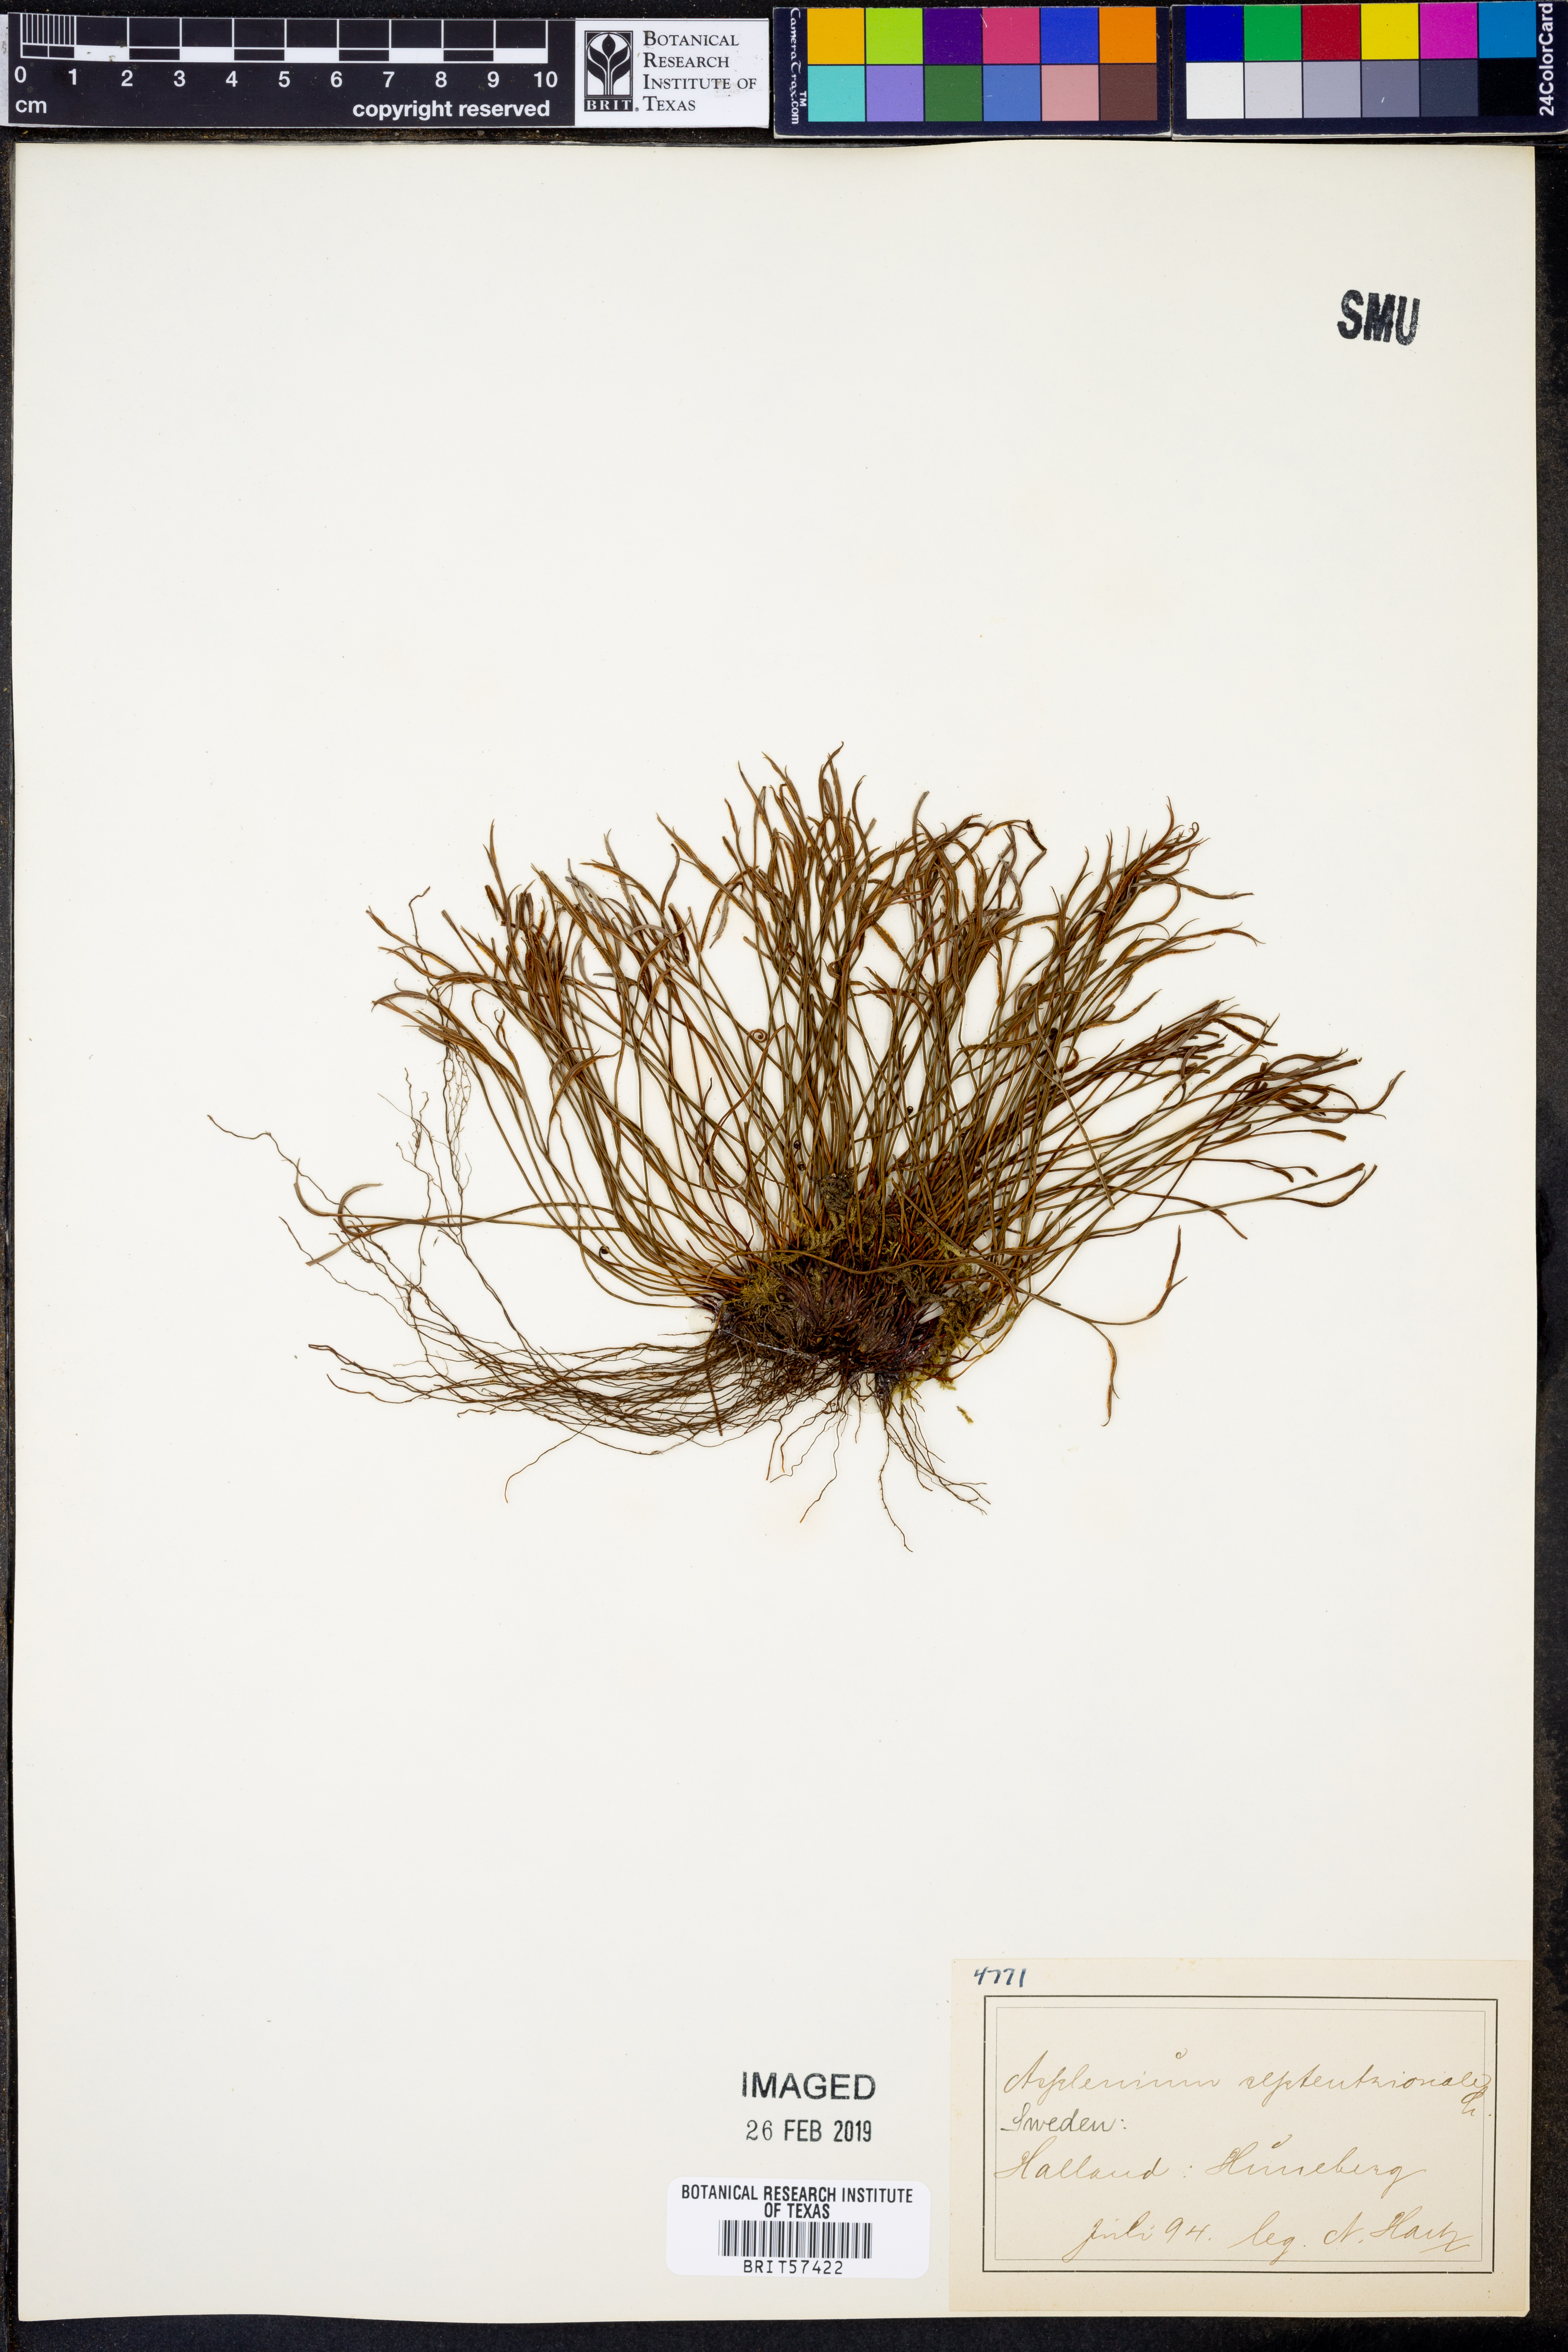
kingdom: Plantae
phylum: Tracheophyta
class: Polypodiopsida
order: Polypodiales
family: Aspleniaceae
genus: Asplenium
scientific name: Asplenium septentrionale
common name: Forked spleenwort
